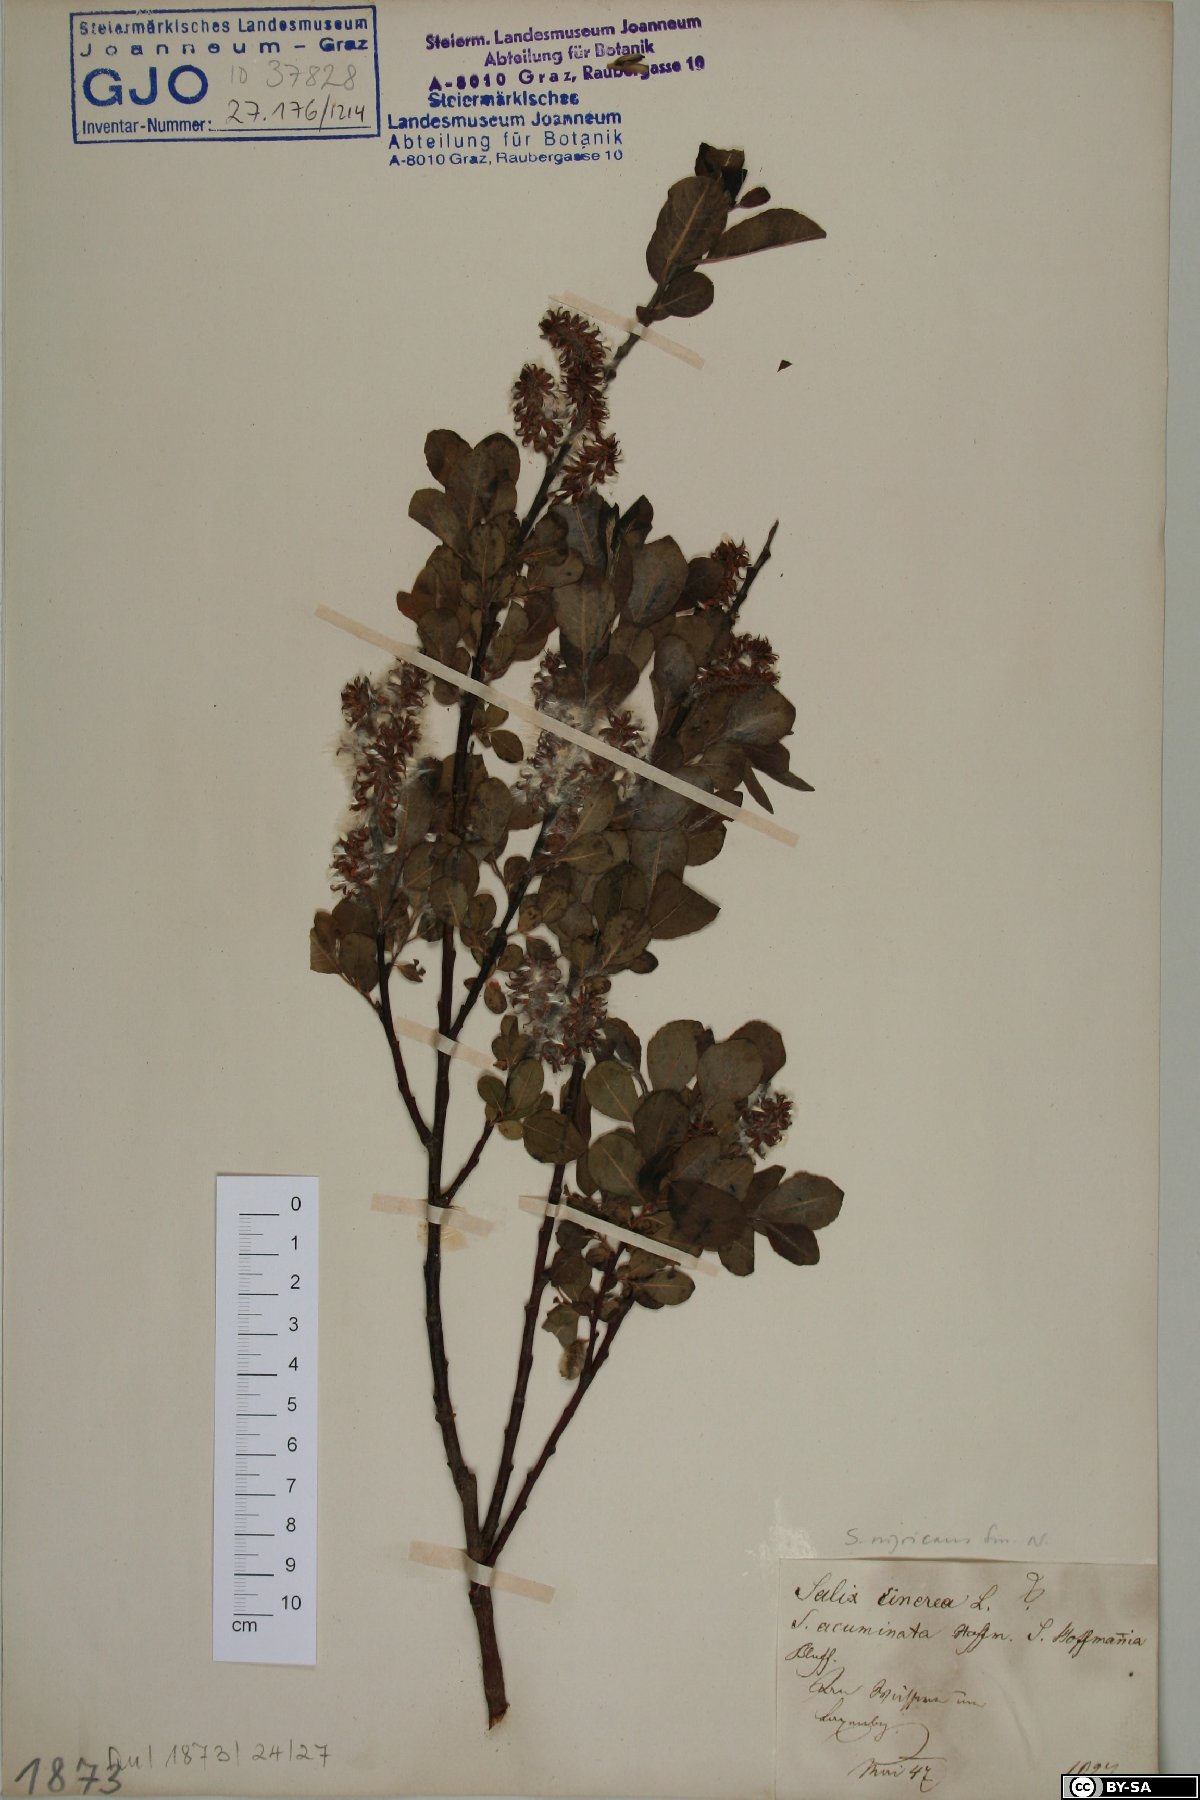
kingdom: Plantae
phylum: Tracheophyta
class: Magnoliopsida
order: Malpighiales
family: Salicaceae
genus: Salix
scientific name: Salix myrsinifolia
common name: Dark-leaved willow
